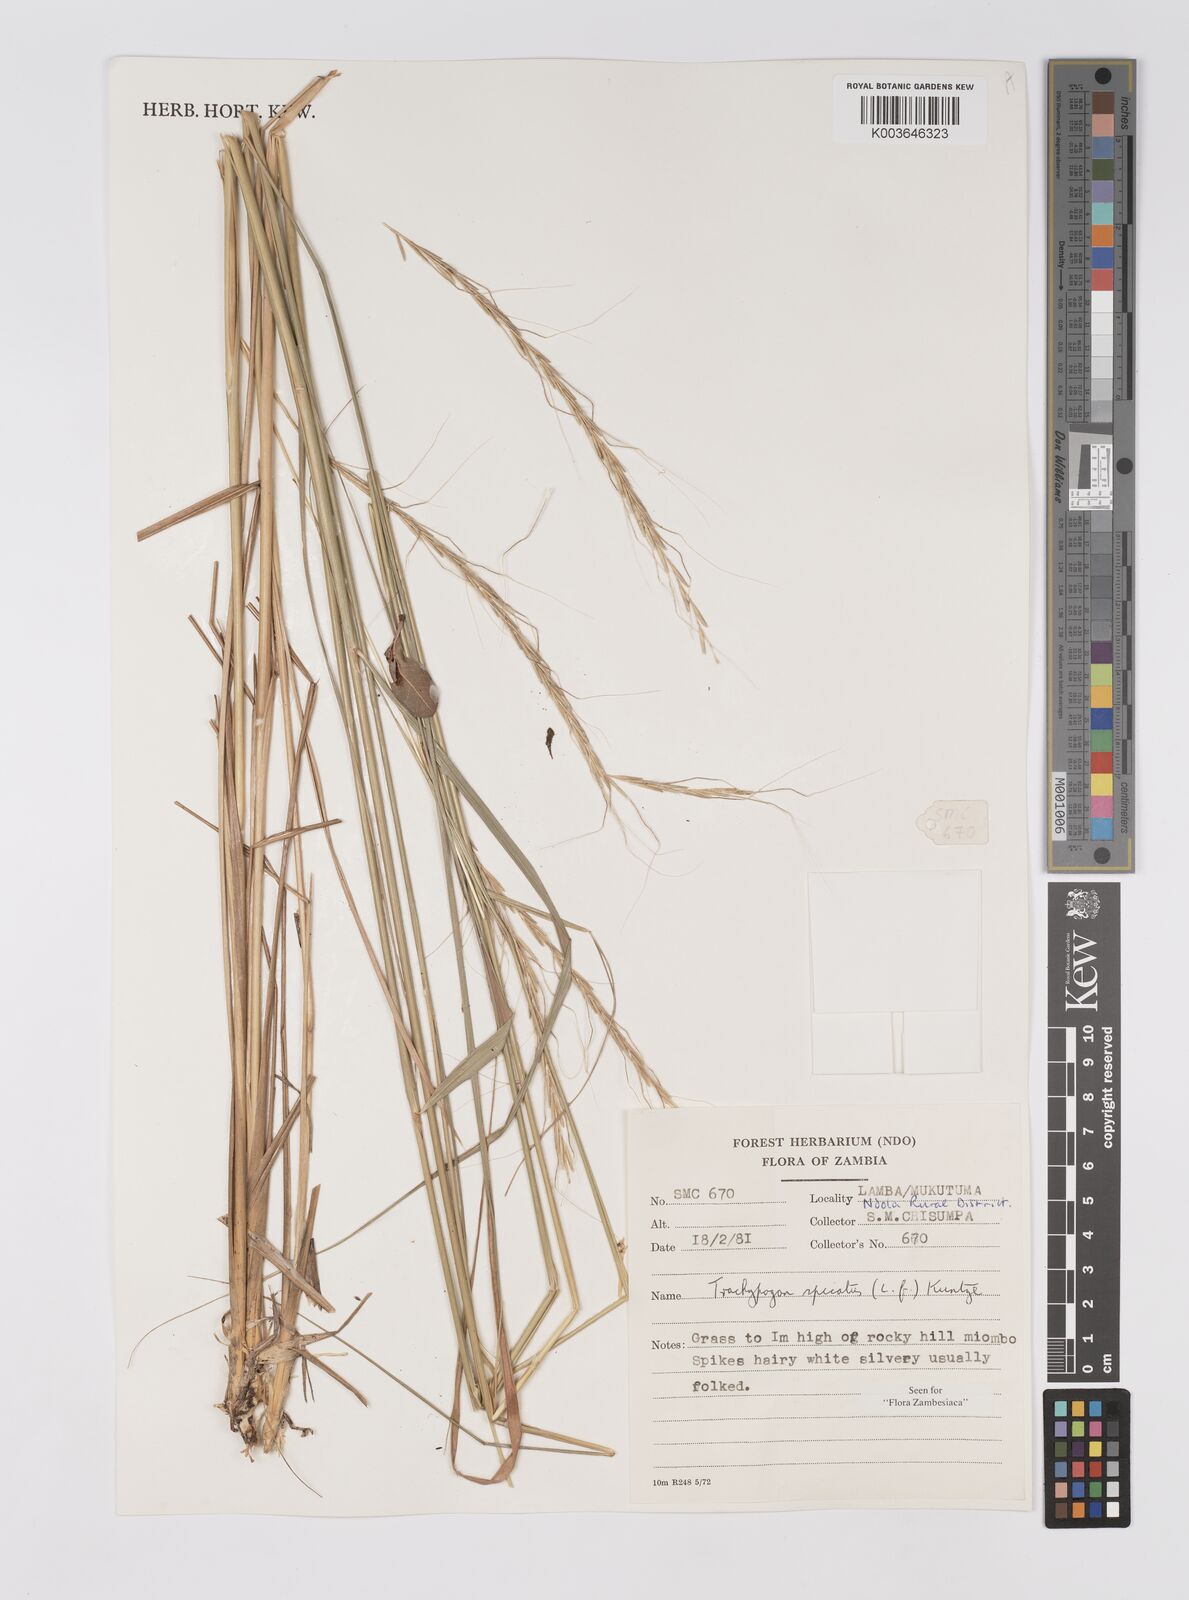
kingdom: Plantae
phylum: Tracheophyta
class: Liliopsida
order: Poales
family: Poaceae
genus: Trachypogon
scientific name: Trachypogon spicatus
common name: Crinkle-awn
